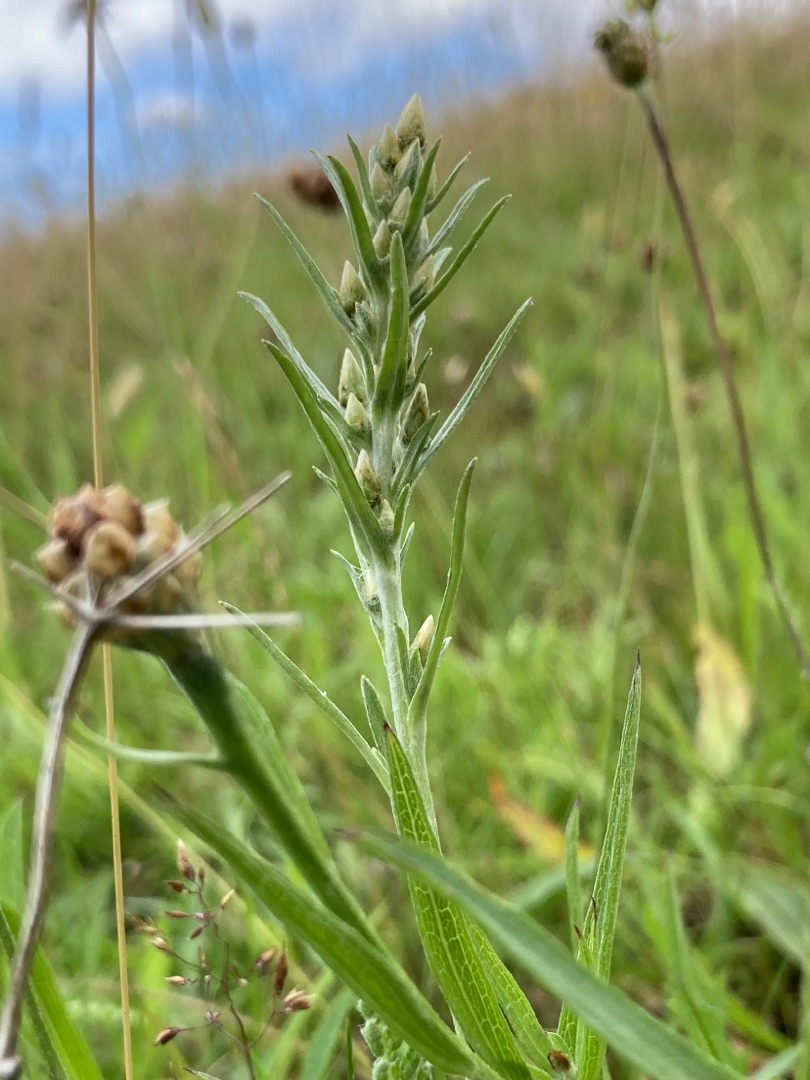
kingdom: Plantae
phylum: Tracheophyta
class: Magnoliopsida
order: Asterales
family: Asteraceae
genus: Omalotheca
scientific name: Omalotheca sylvatica
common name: Rank evighedsblomst
